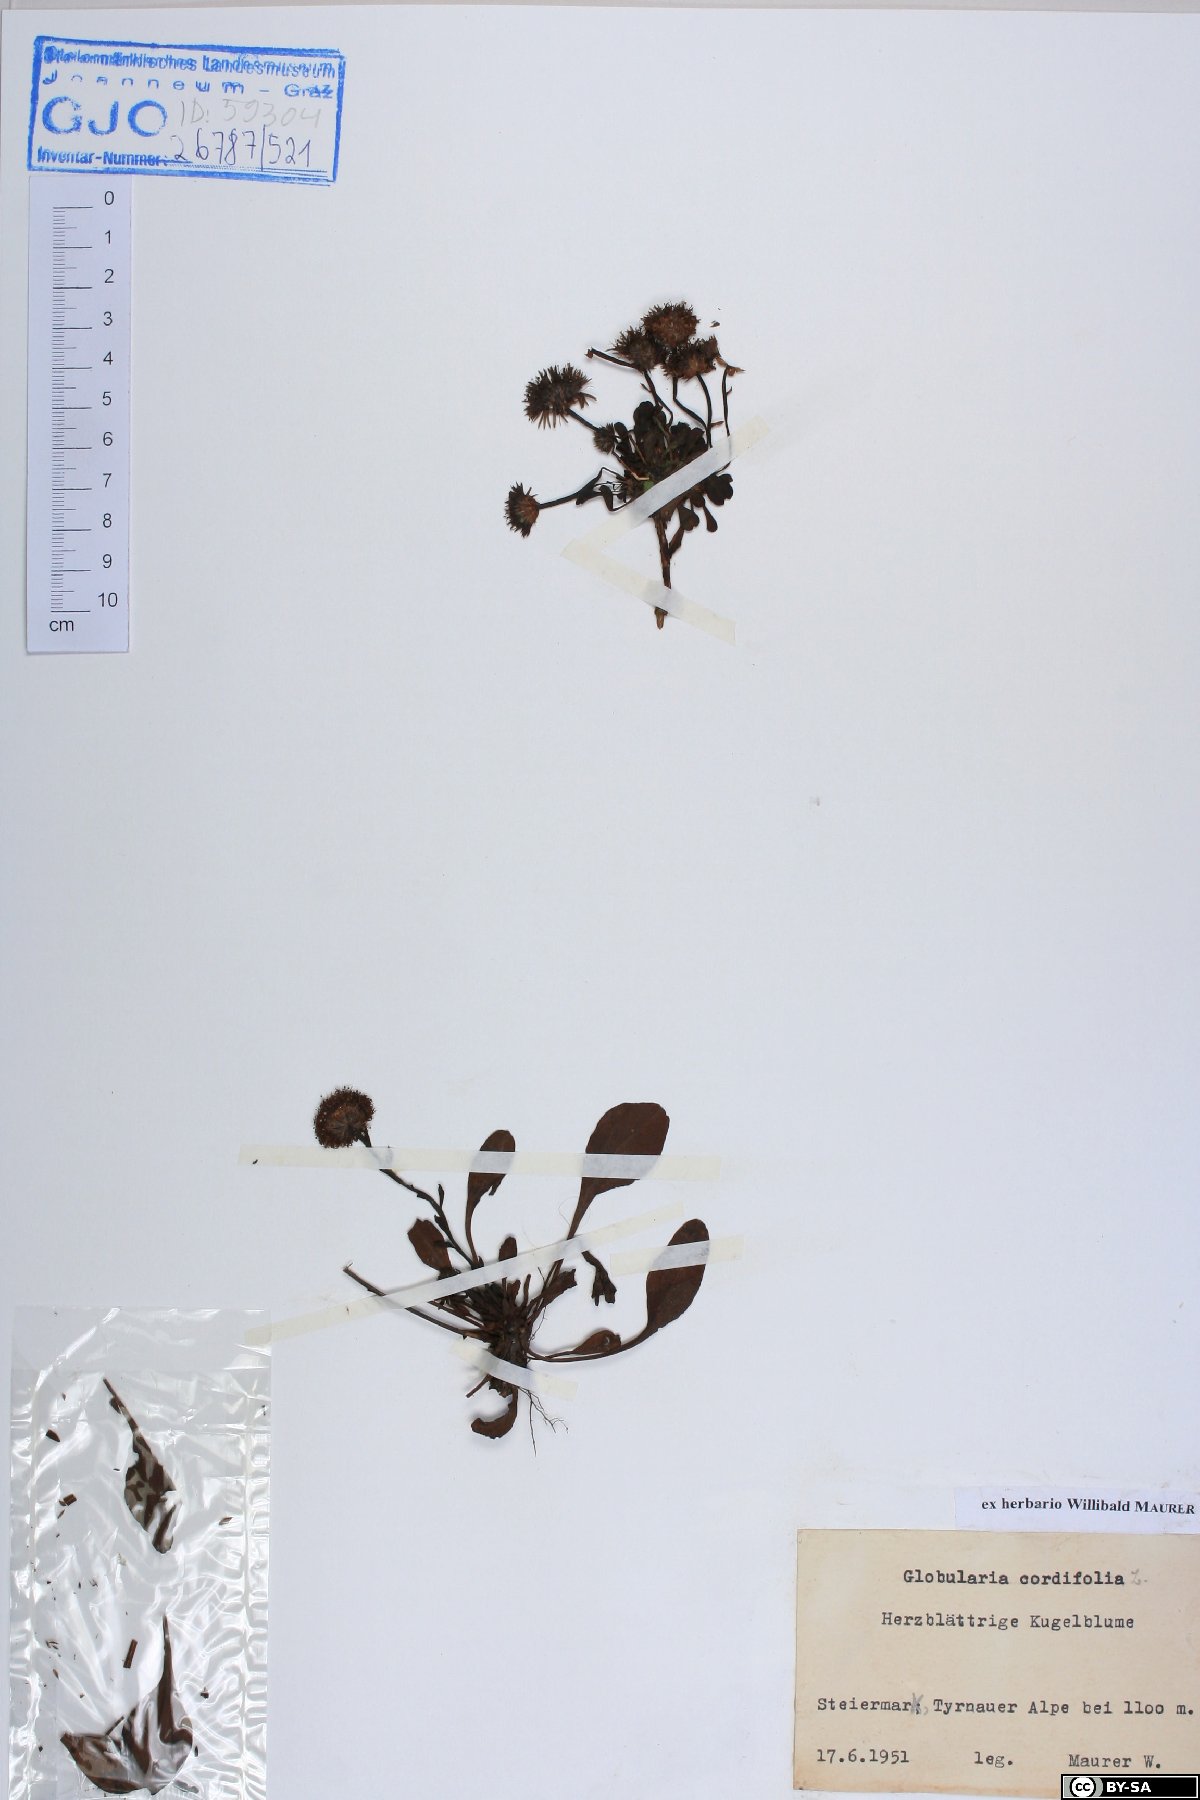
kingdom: Plantae
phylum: Tracheophyta
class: Magnoliopsida
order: Lamiales
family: Plantaginaceae
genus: Globularia
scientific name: Globularia cordifolia
